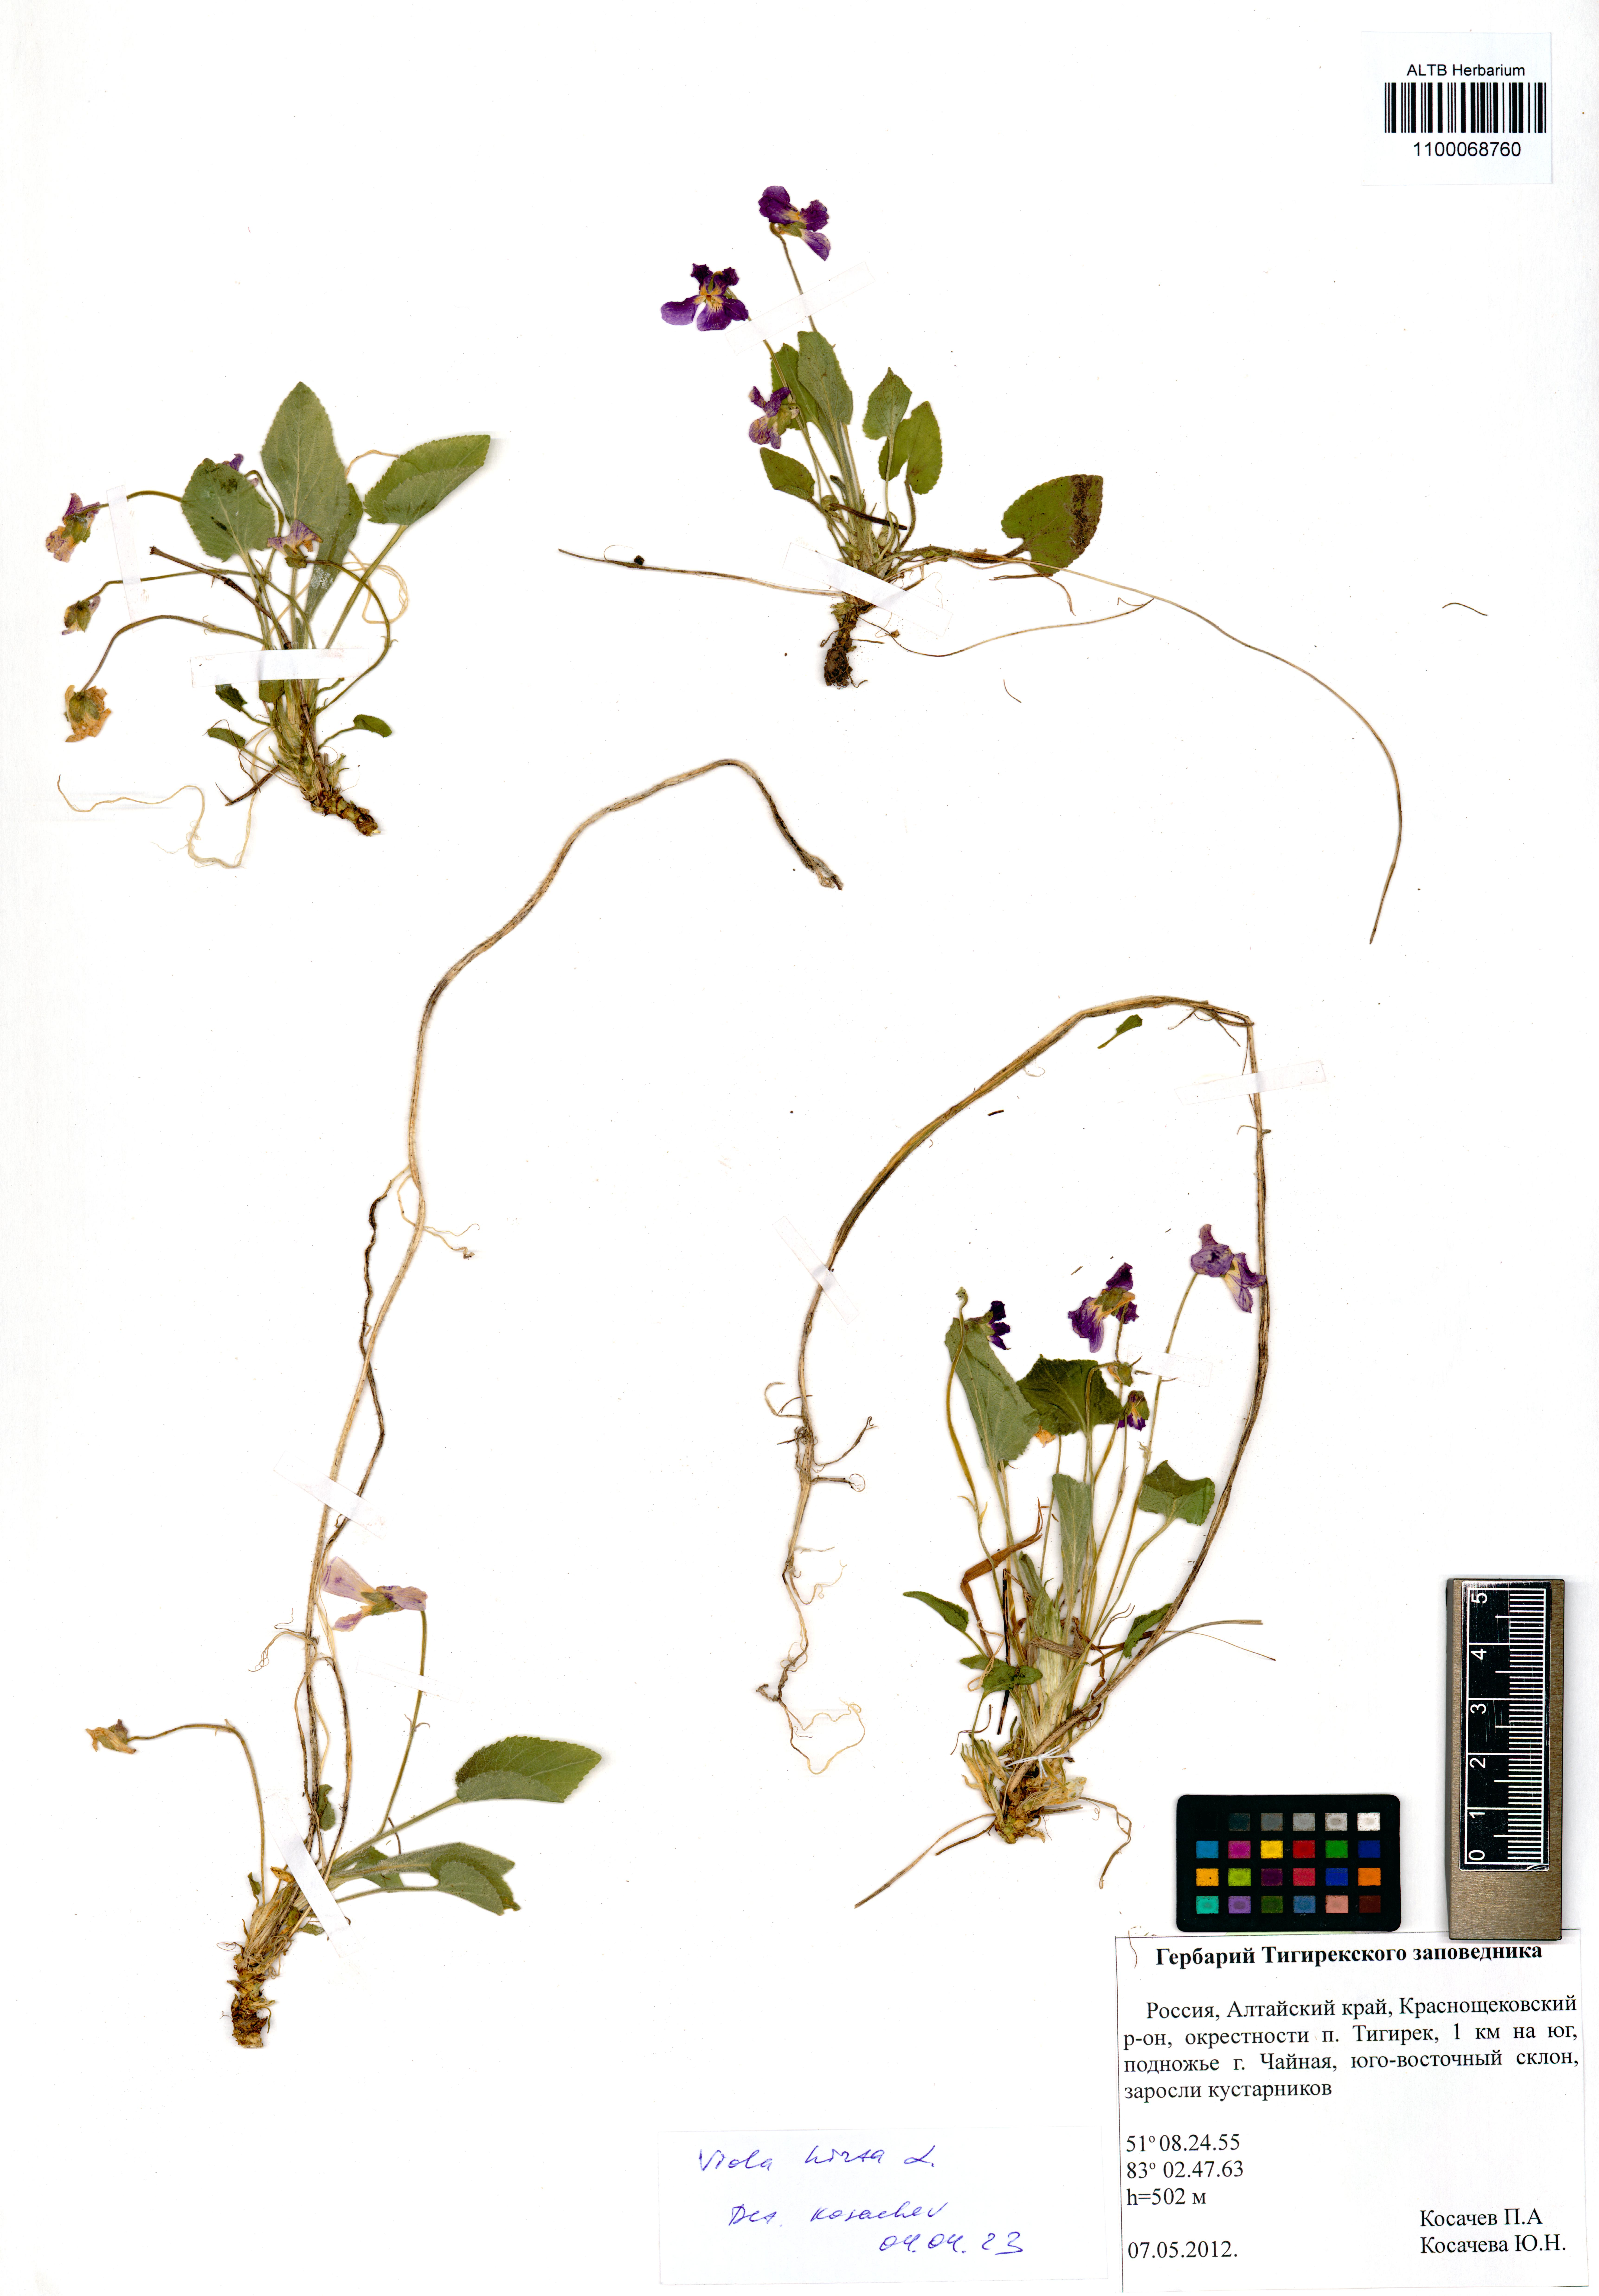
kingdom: Plantae
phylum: Tracheophyta
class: Magnoliopsida
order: Malpighiales
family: Violaceae
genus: Viola
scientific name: Viola hirta
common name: Hairy violet
